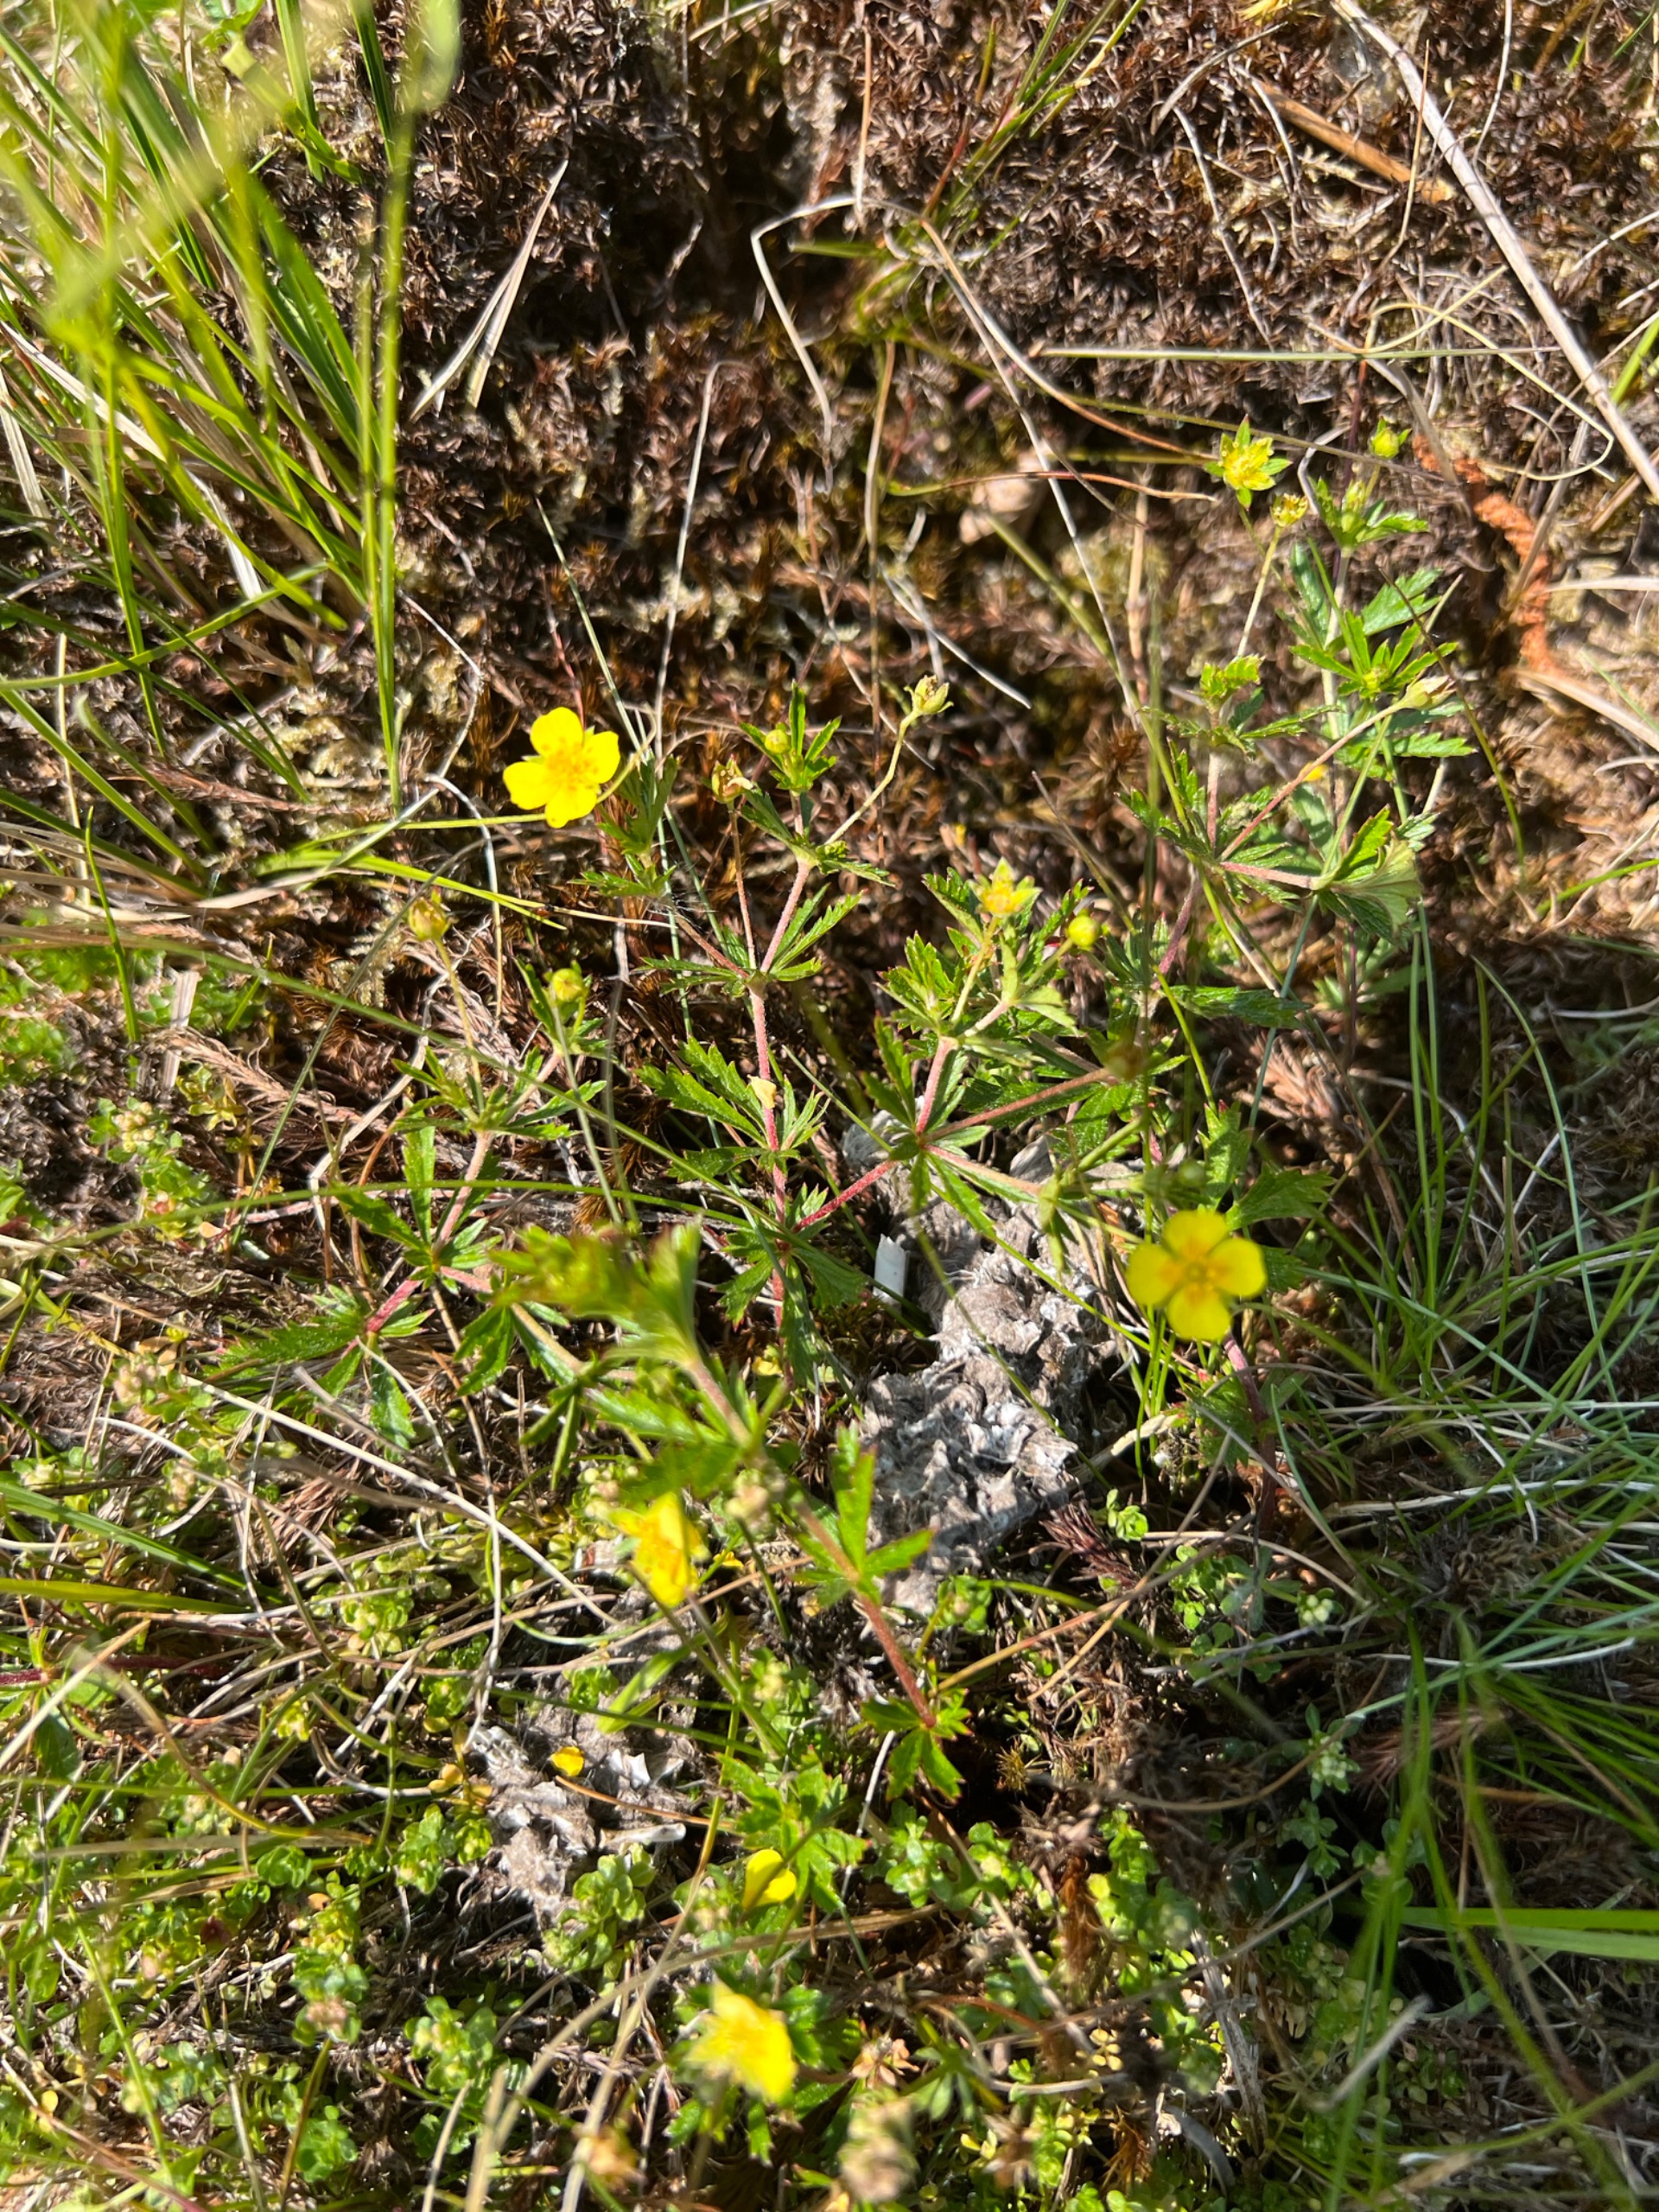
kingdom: Plantae
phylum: Tracheophyta
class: Magnoliopsida
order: Rosales
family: Rosaceae
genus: Potentilla
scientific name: Potentilla erecta
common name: Tormentil
